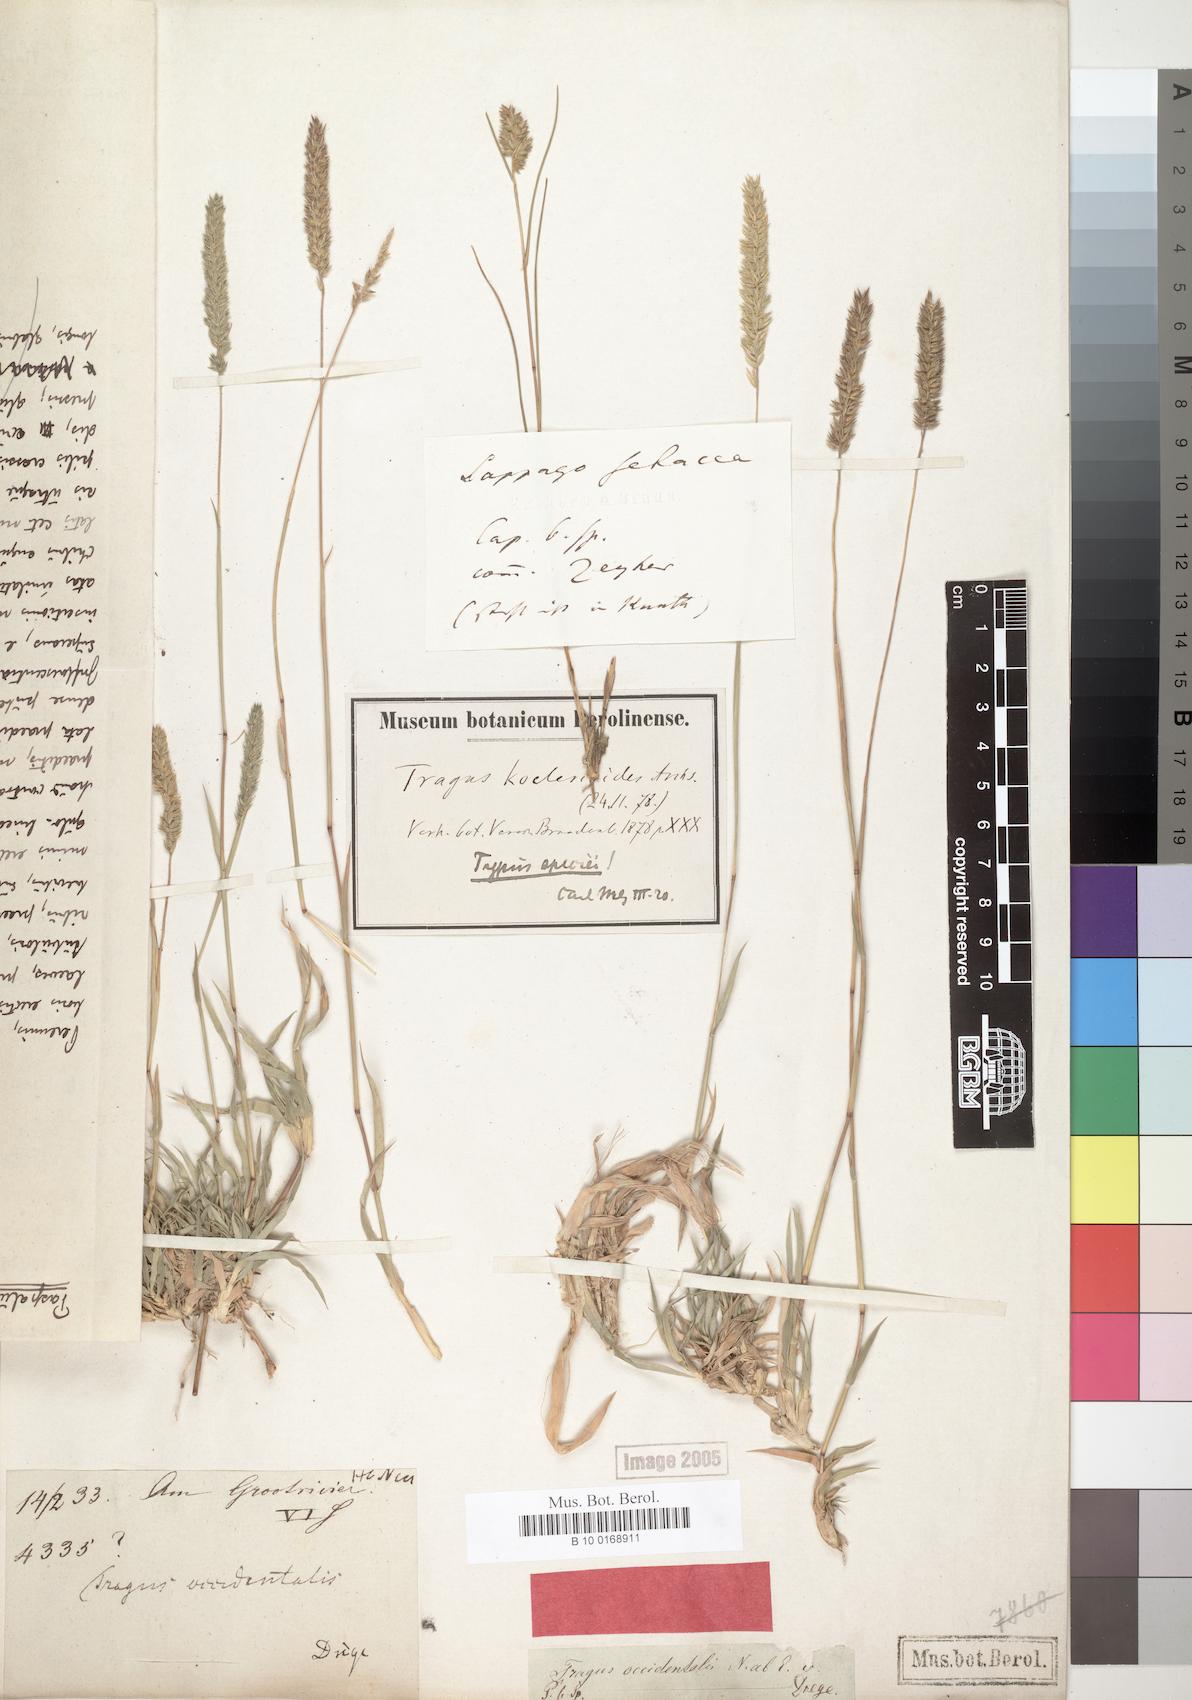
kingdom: Plantae
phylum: Tracheophyta
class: Liliopsida
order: Poales
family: Poaceae
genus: Tragus
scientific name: Tragus koelerioides
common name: Creeping carrot-seed grass
